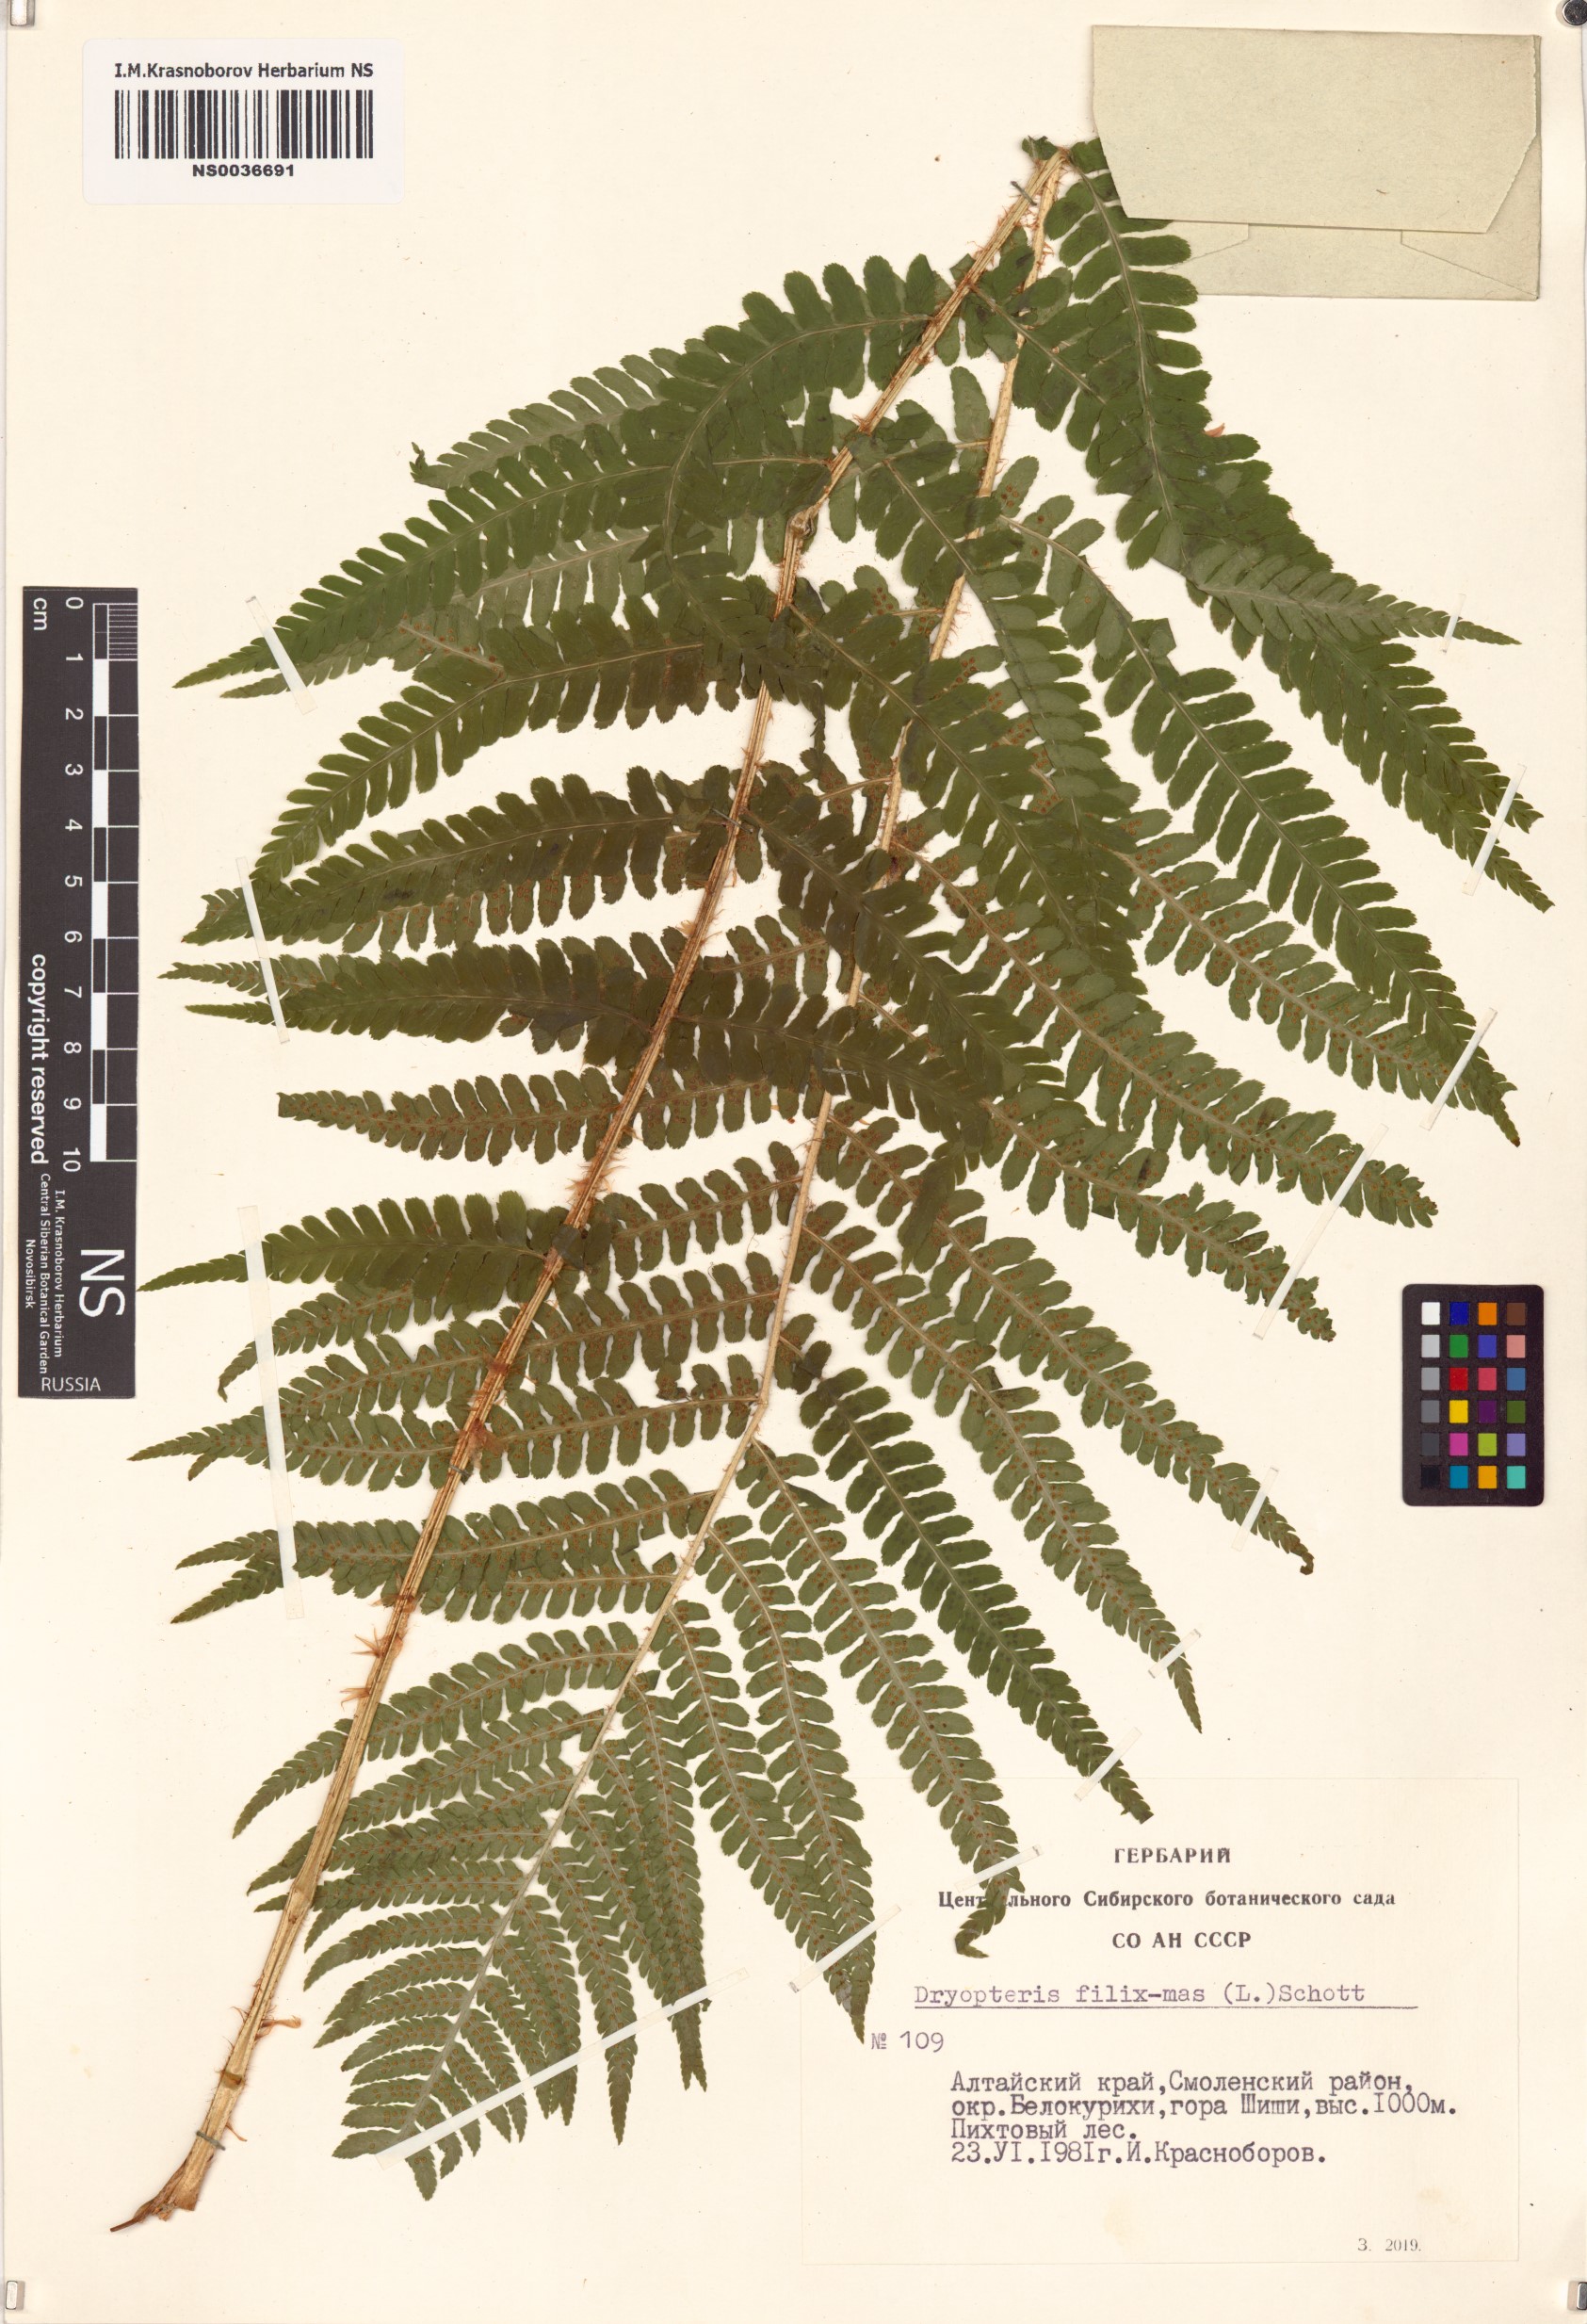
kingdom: Plantae
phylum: Tracheophyta
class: Polypodiopsida
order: Polypodiales
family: Dryopteridaceae
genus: Dryopteris
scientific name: Dryopteris filix-mas
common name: Male fern
